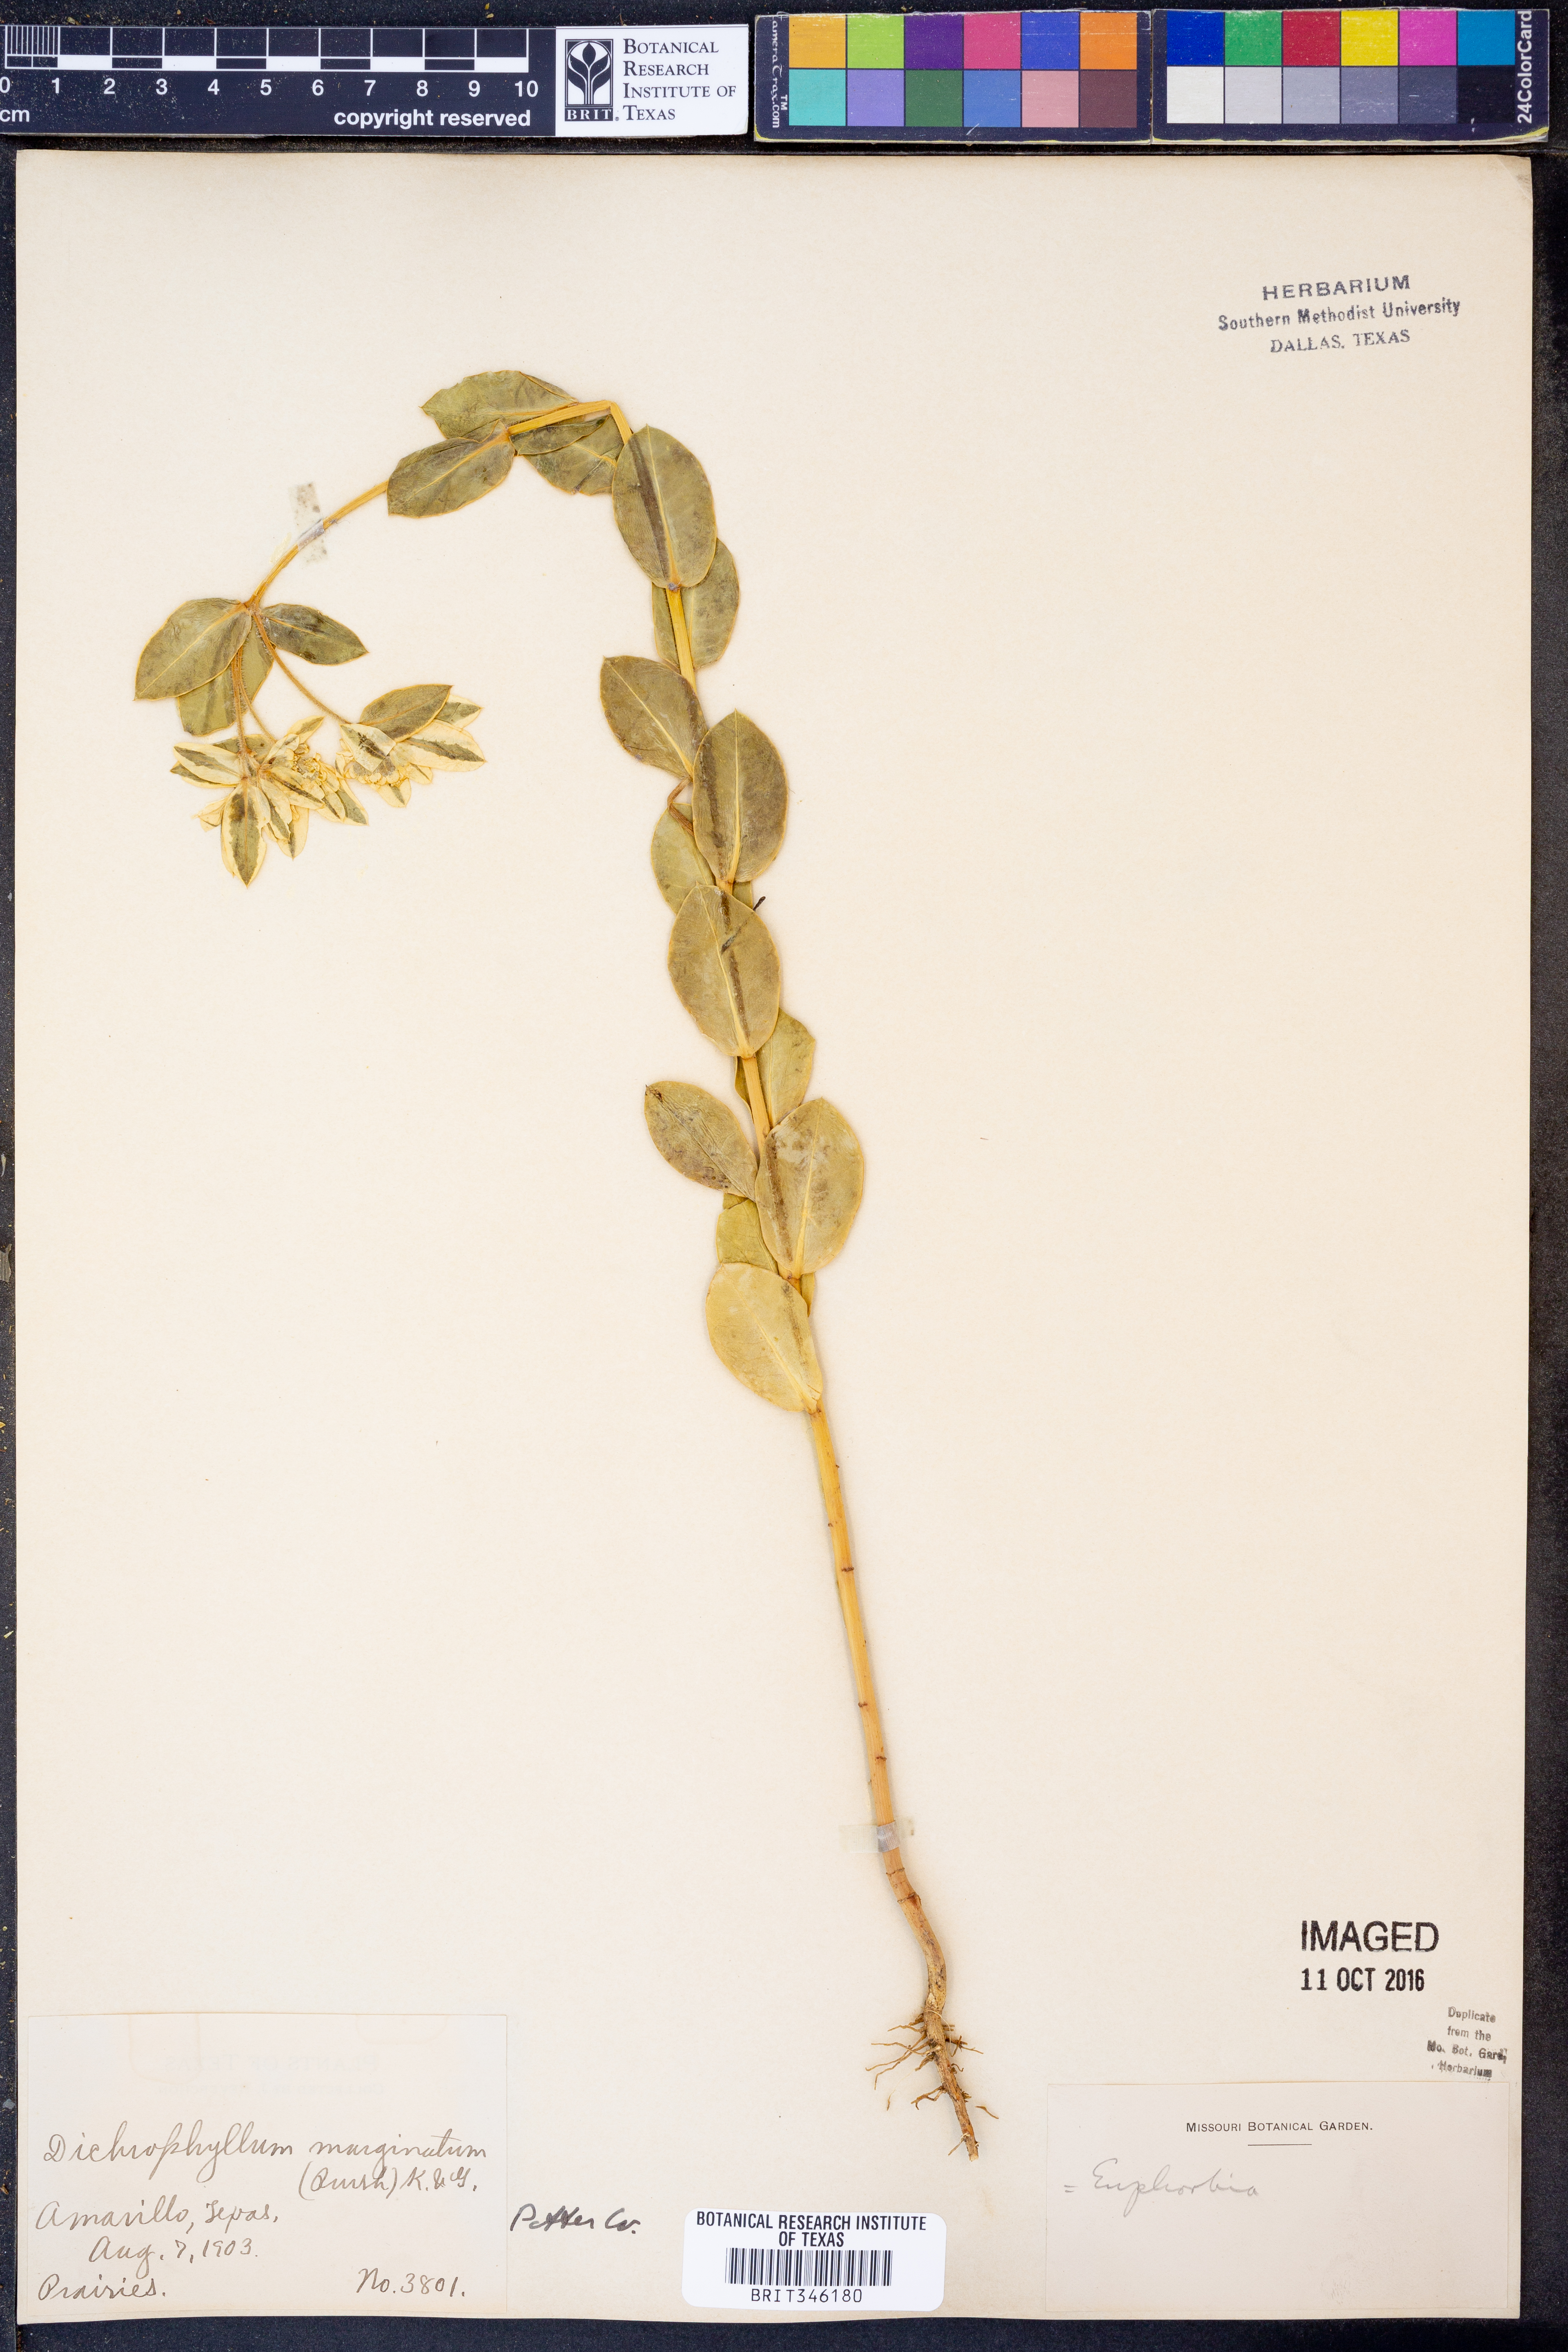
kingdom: Plantae
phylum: Tracheophyta
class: Magnoliopsida
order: Malpighiales
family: Euphorbiaceae
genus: Euphorbia
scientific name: Euphorbia marginata
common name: Ghostweed
